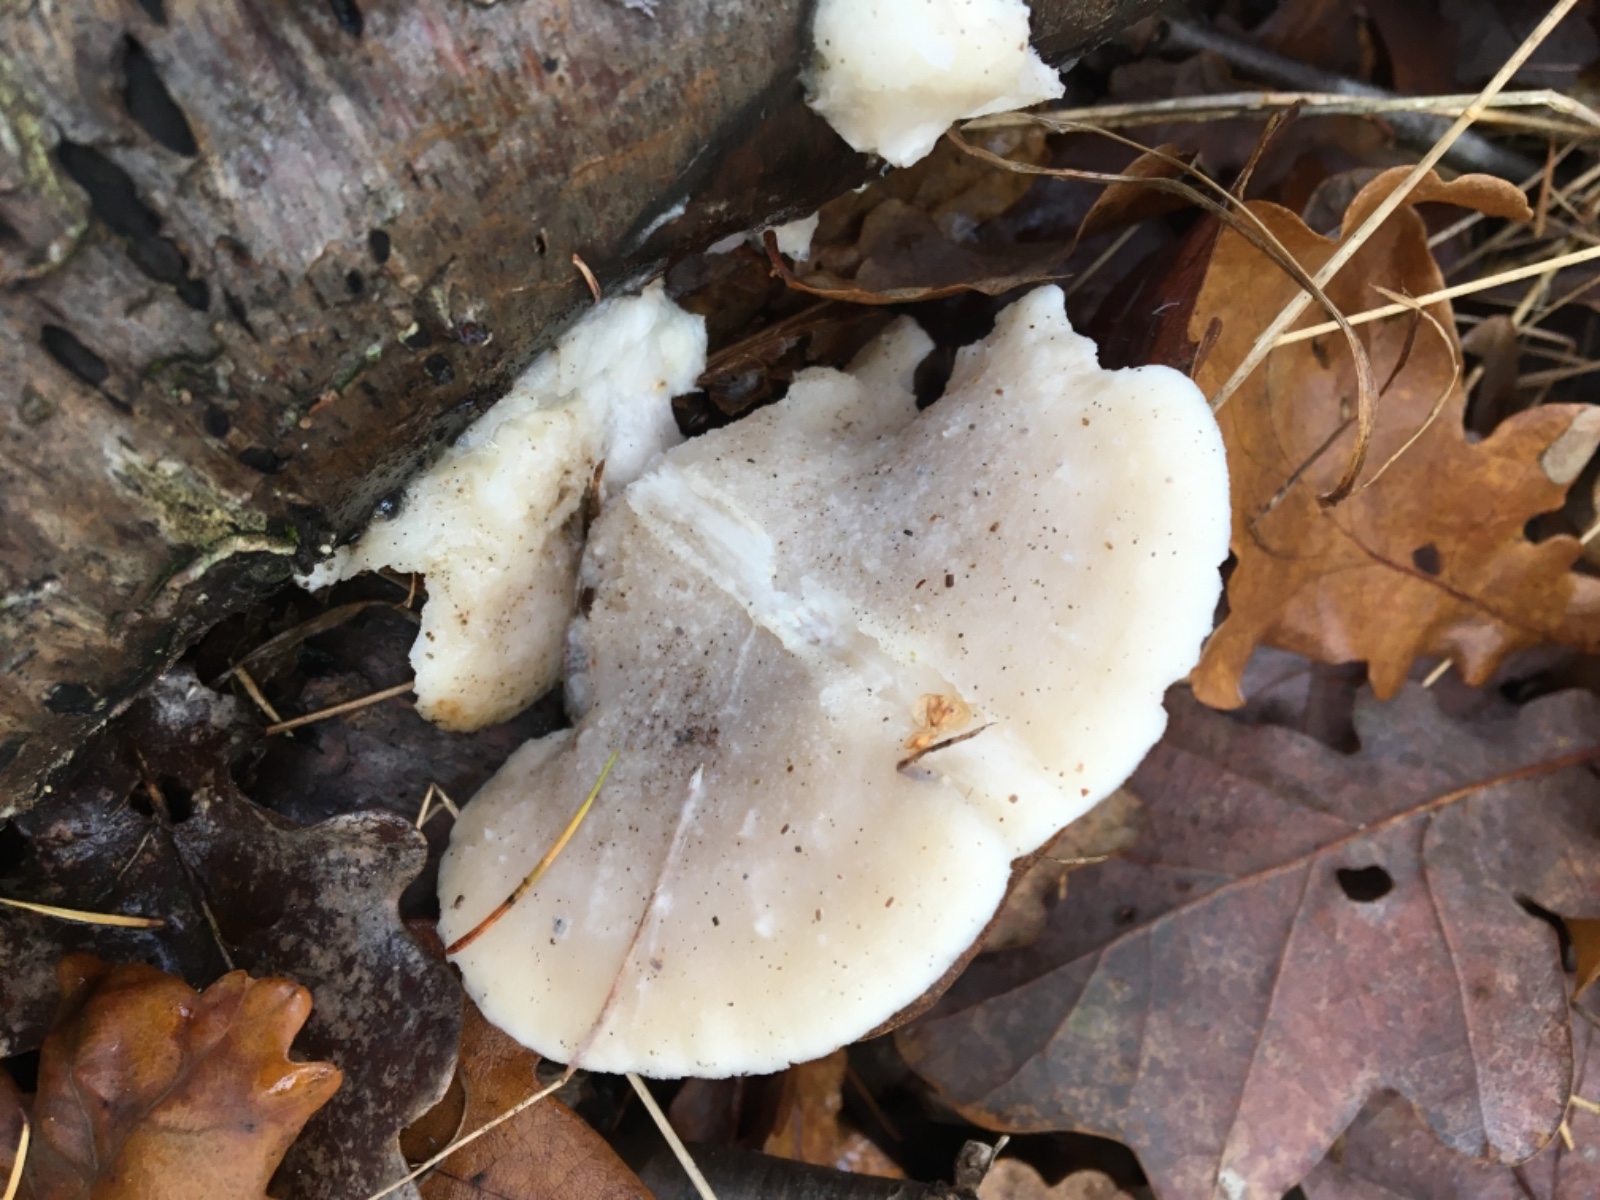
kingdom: Fungi
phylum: Basidiomycota
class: Agaricomycetes
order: Polyporales
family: Incrustoporiaceae
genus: Tyromyces
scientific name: Tyromyces lacteus
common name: mælkehvid kødporesvamp
